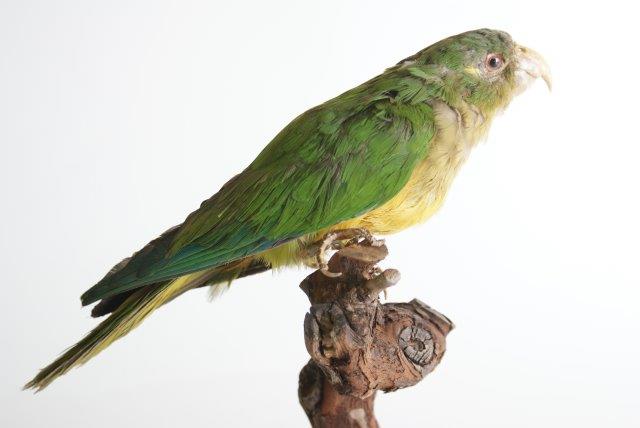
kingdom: Animalia
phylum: Chordata
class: Aves
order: Psittaciformes
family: Psittacidae
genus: Neophema
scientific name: Neophema elegans
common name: Elegant Parrot
